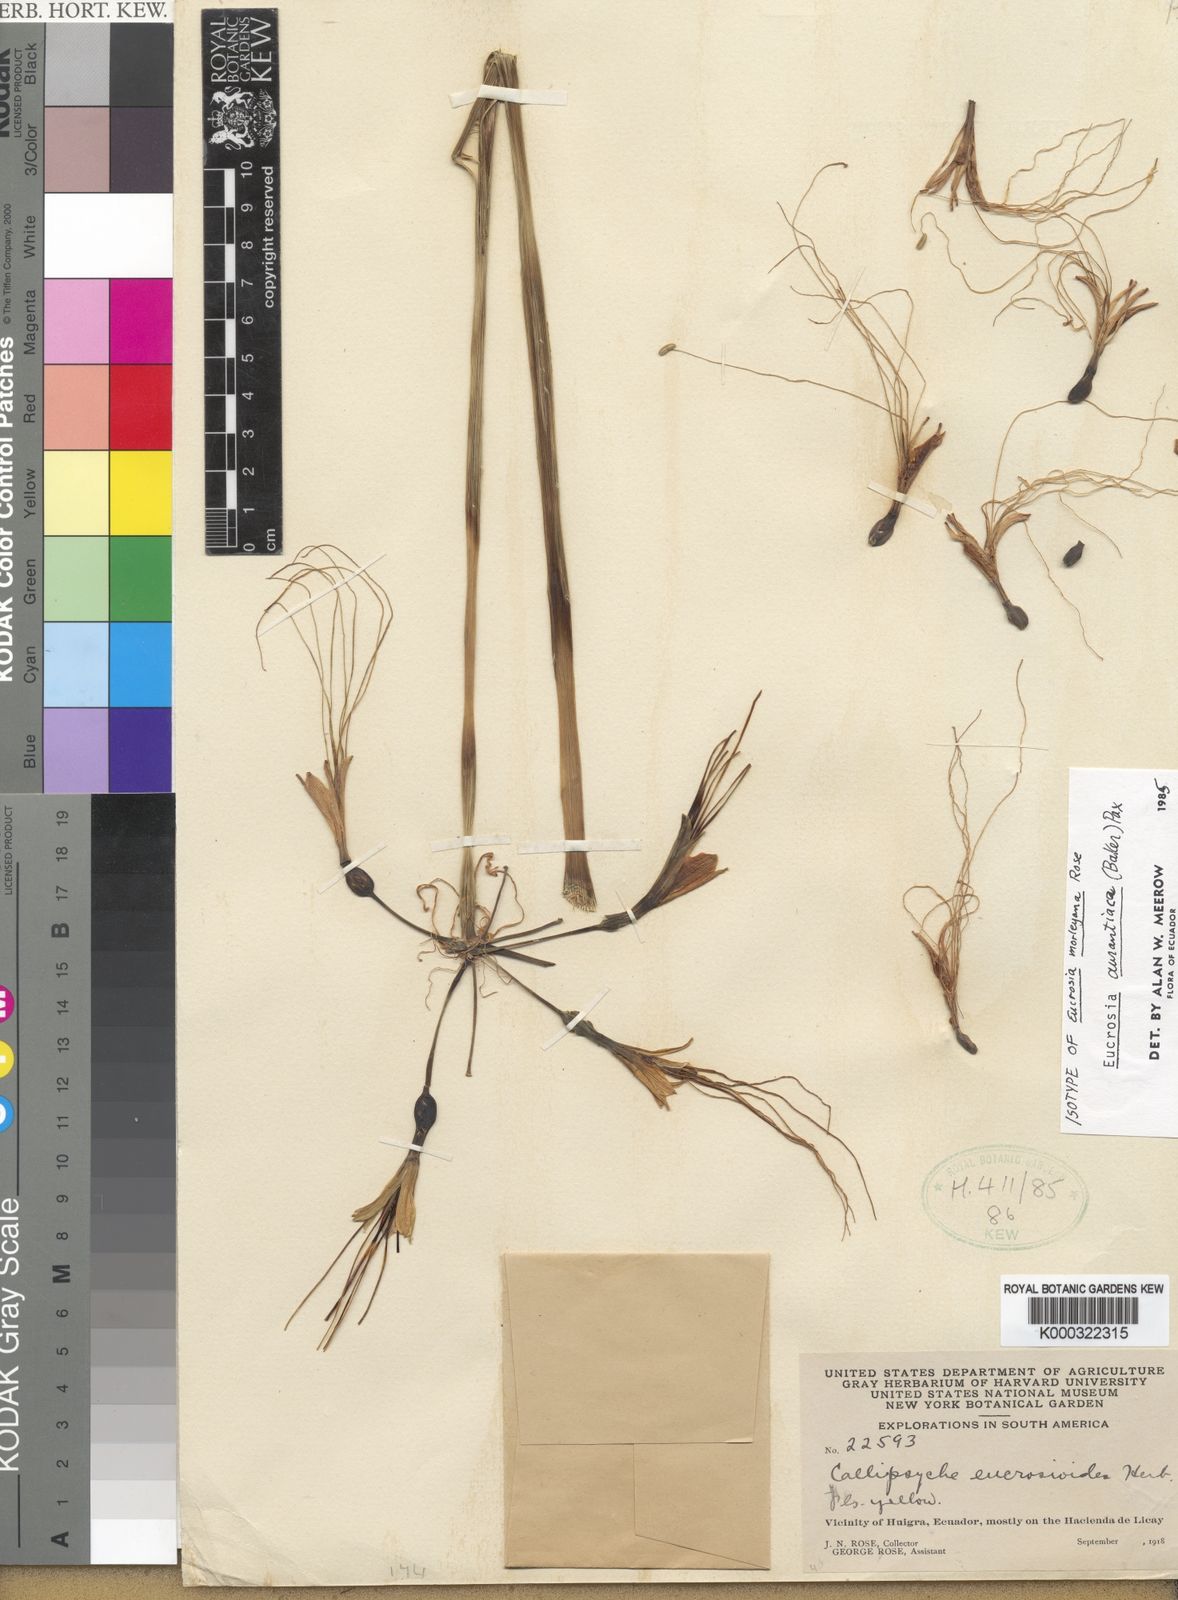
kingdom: Plantae
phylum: Tracheophyta
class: Liliopsida
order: Asparagales
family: Amaryllidaceae
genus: Eucrosia
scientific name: Eucrosia aurantiaca
